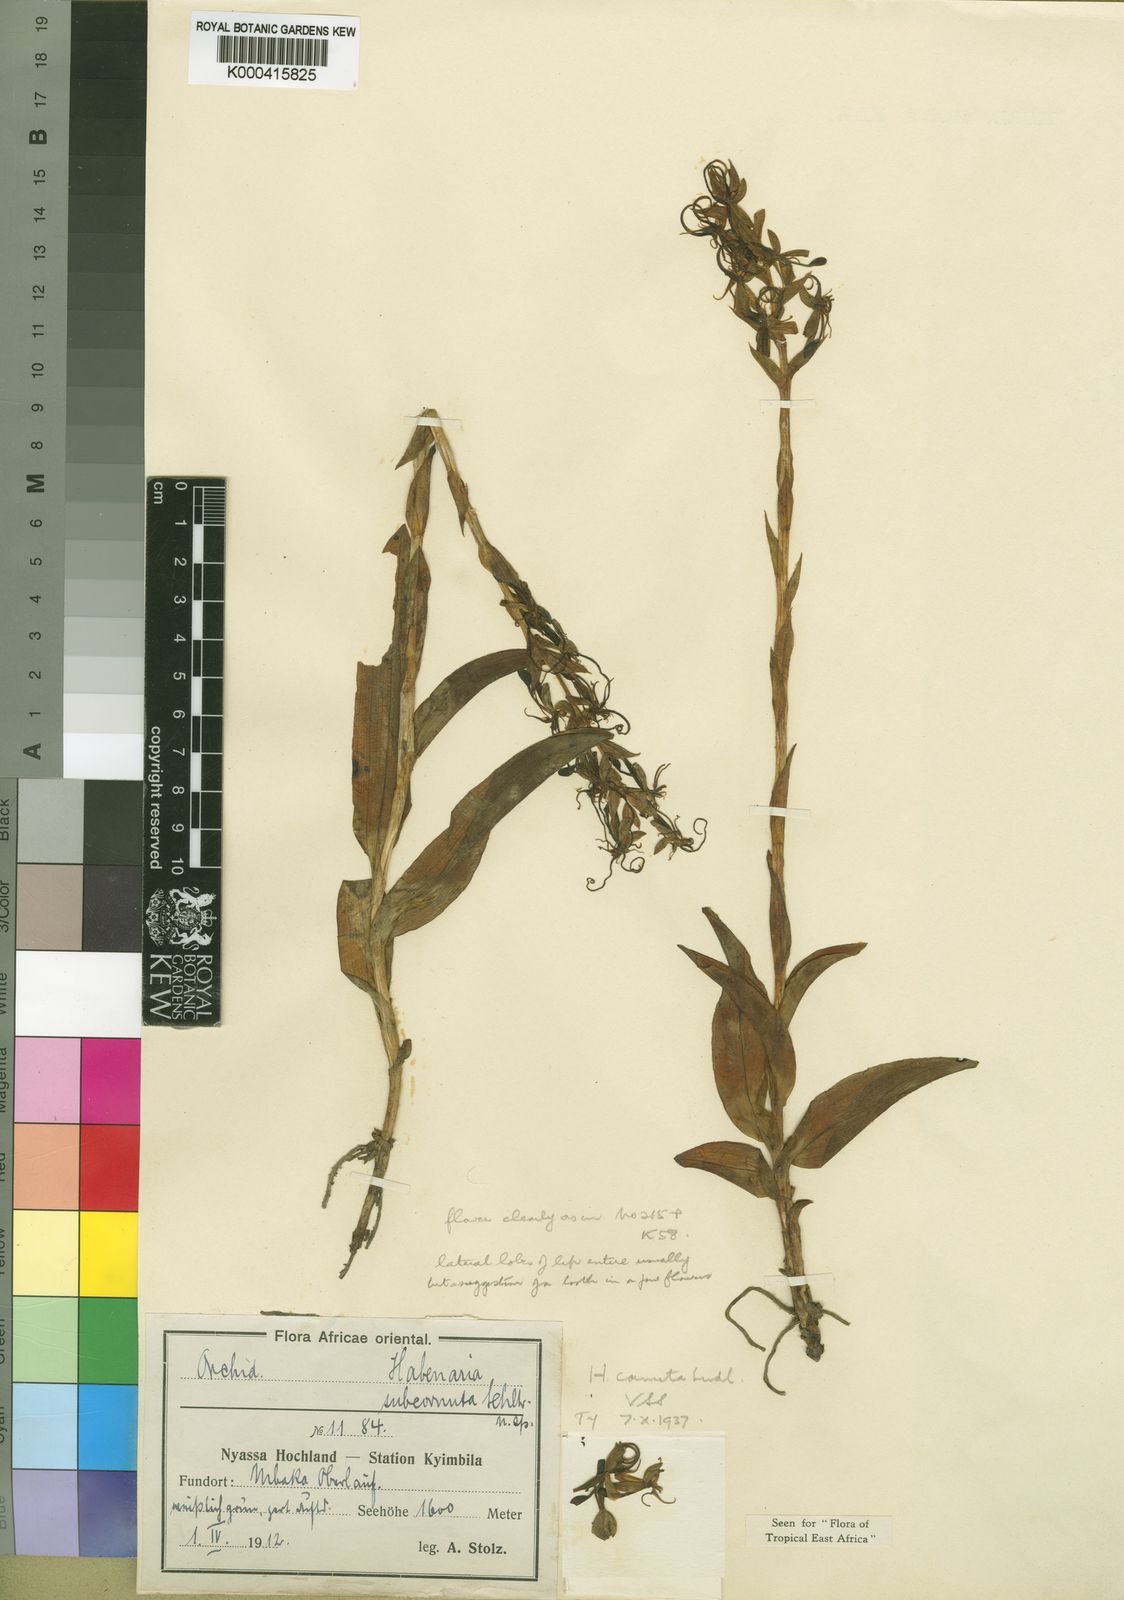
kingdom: Plantae
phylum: Tracheophyta
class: Liliopsida
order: Asparagales
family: Orchidaceae
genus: Habenaria
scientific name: Habenaria cornuta
